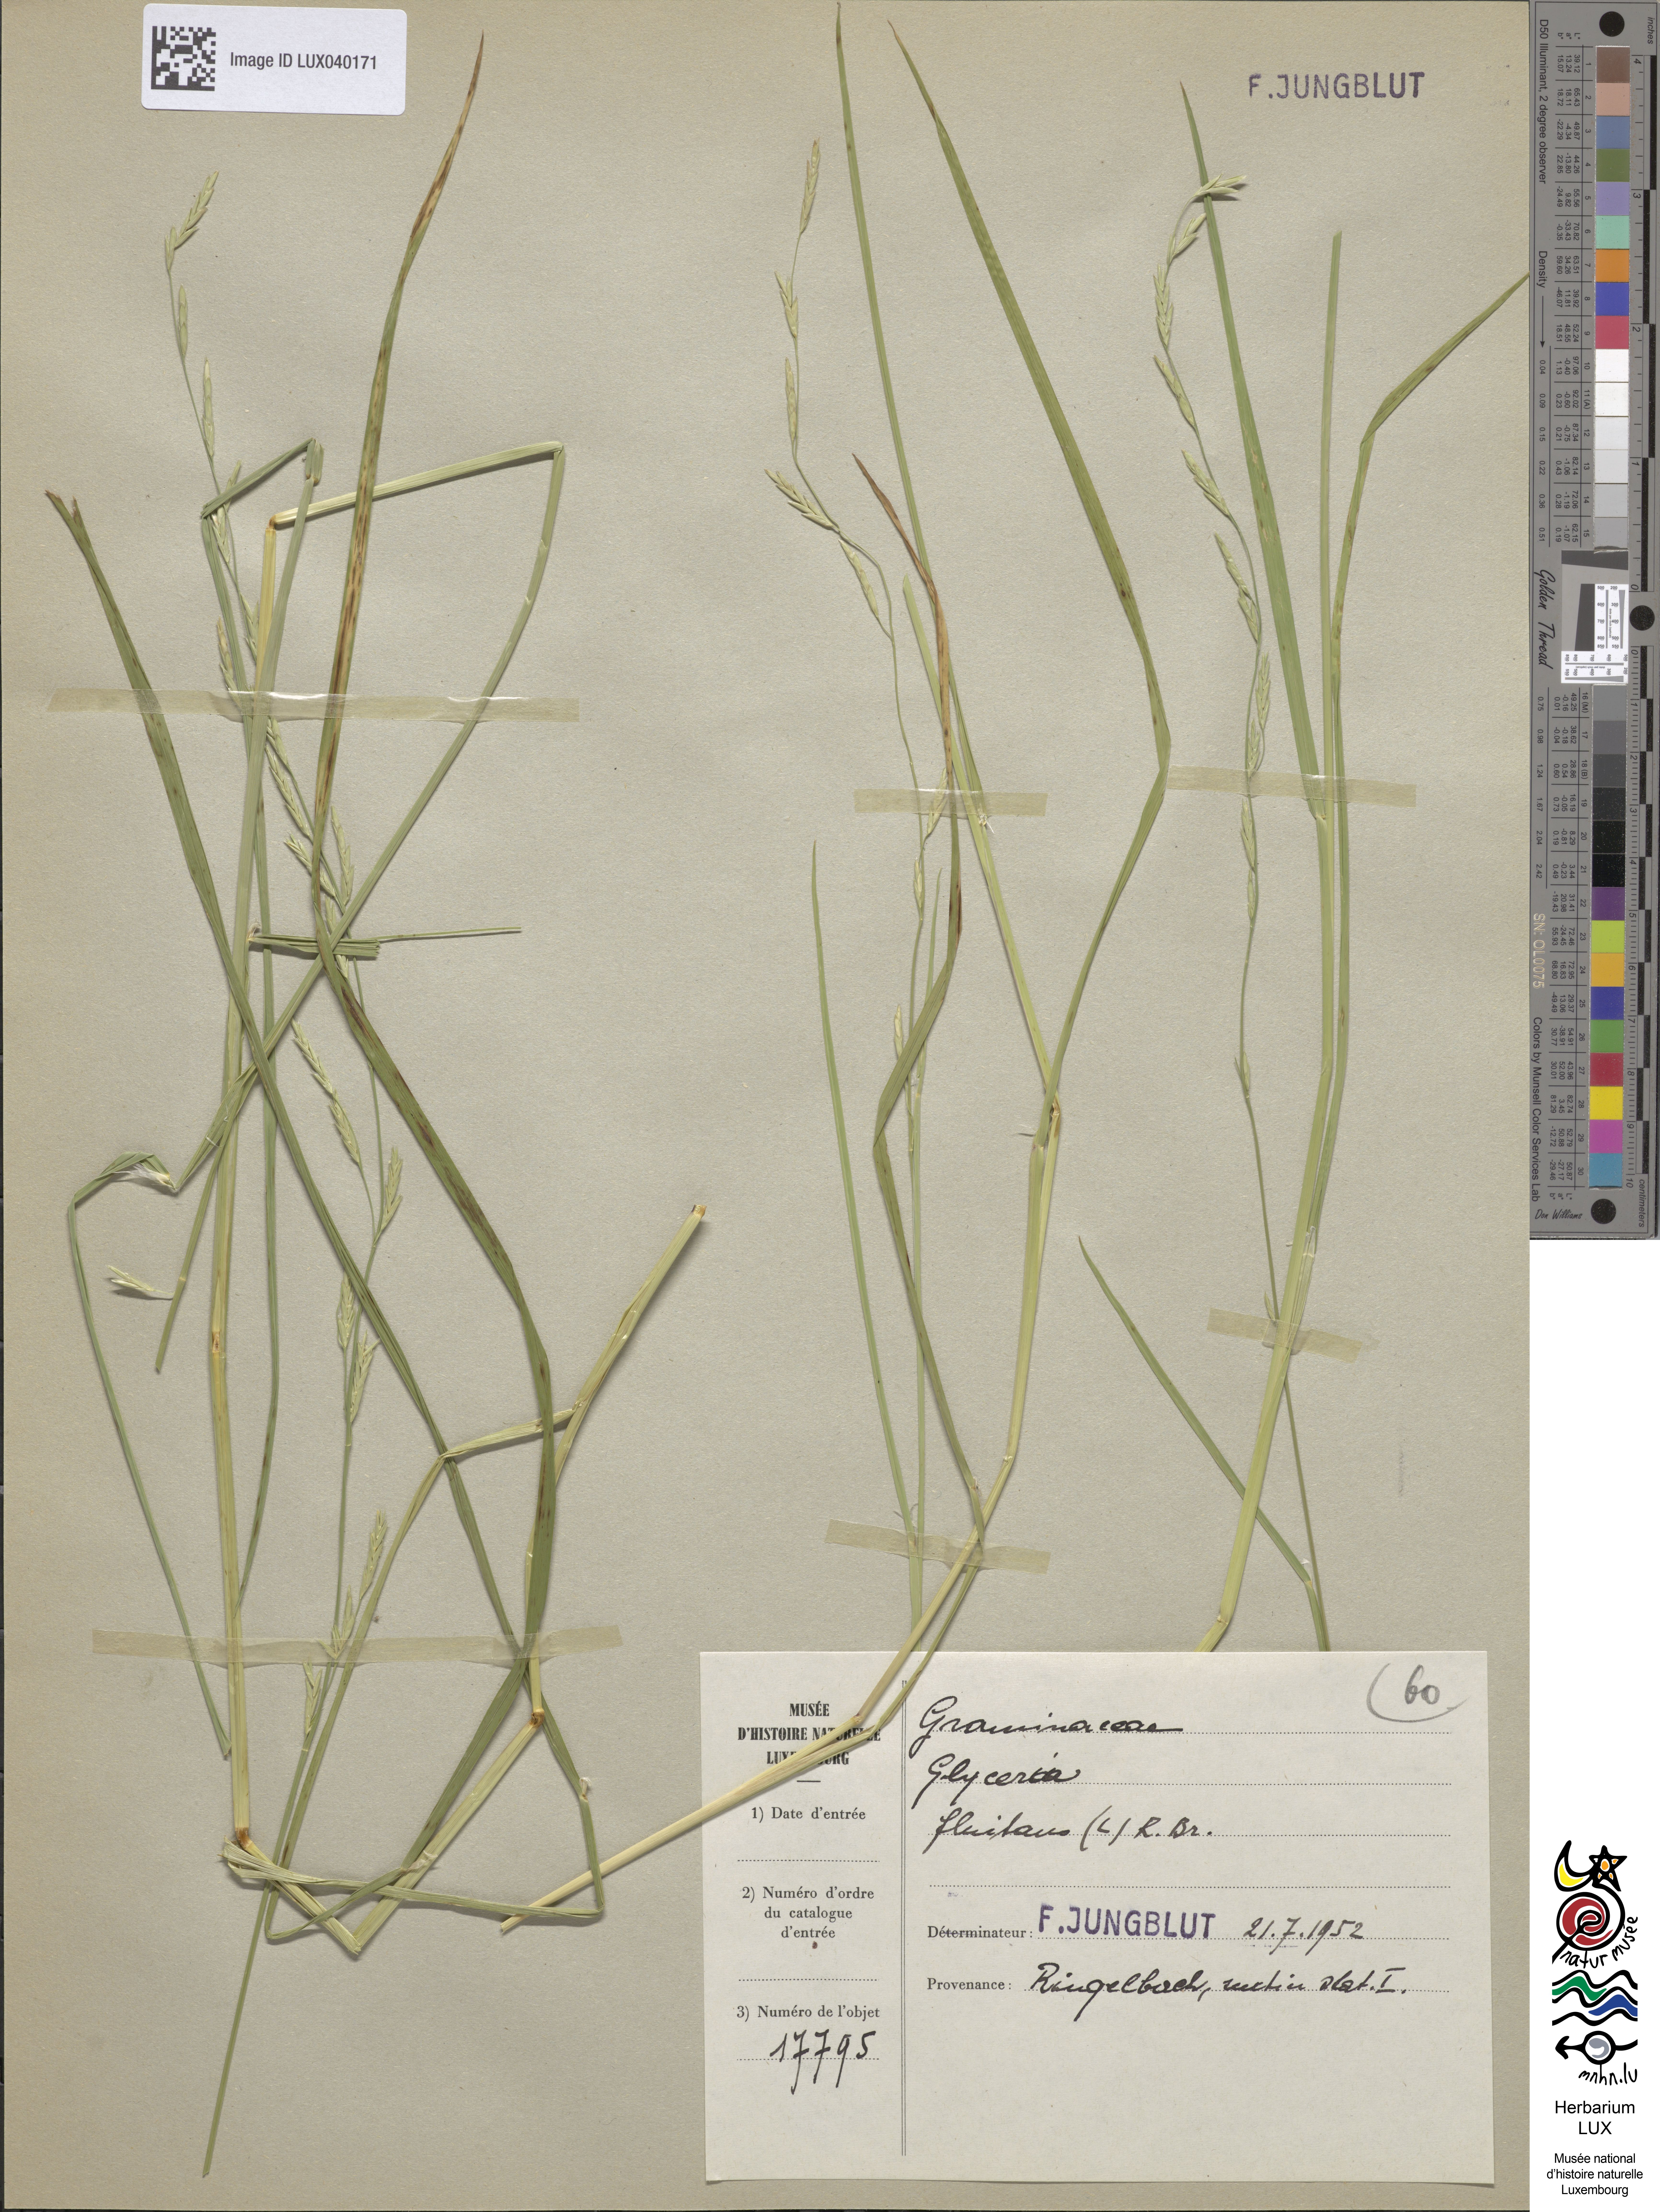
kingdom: Plantae
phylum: Tracheophyta
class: Liliopsida
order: Poales
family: Poaceae
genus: Glyceria
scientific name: Glyceria fluitans
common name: Floating sweet-grass
